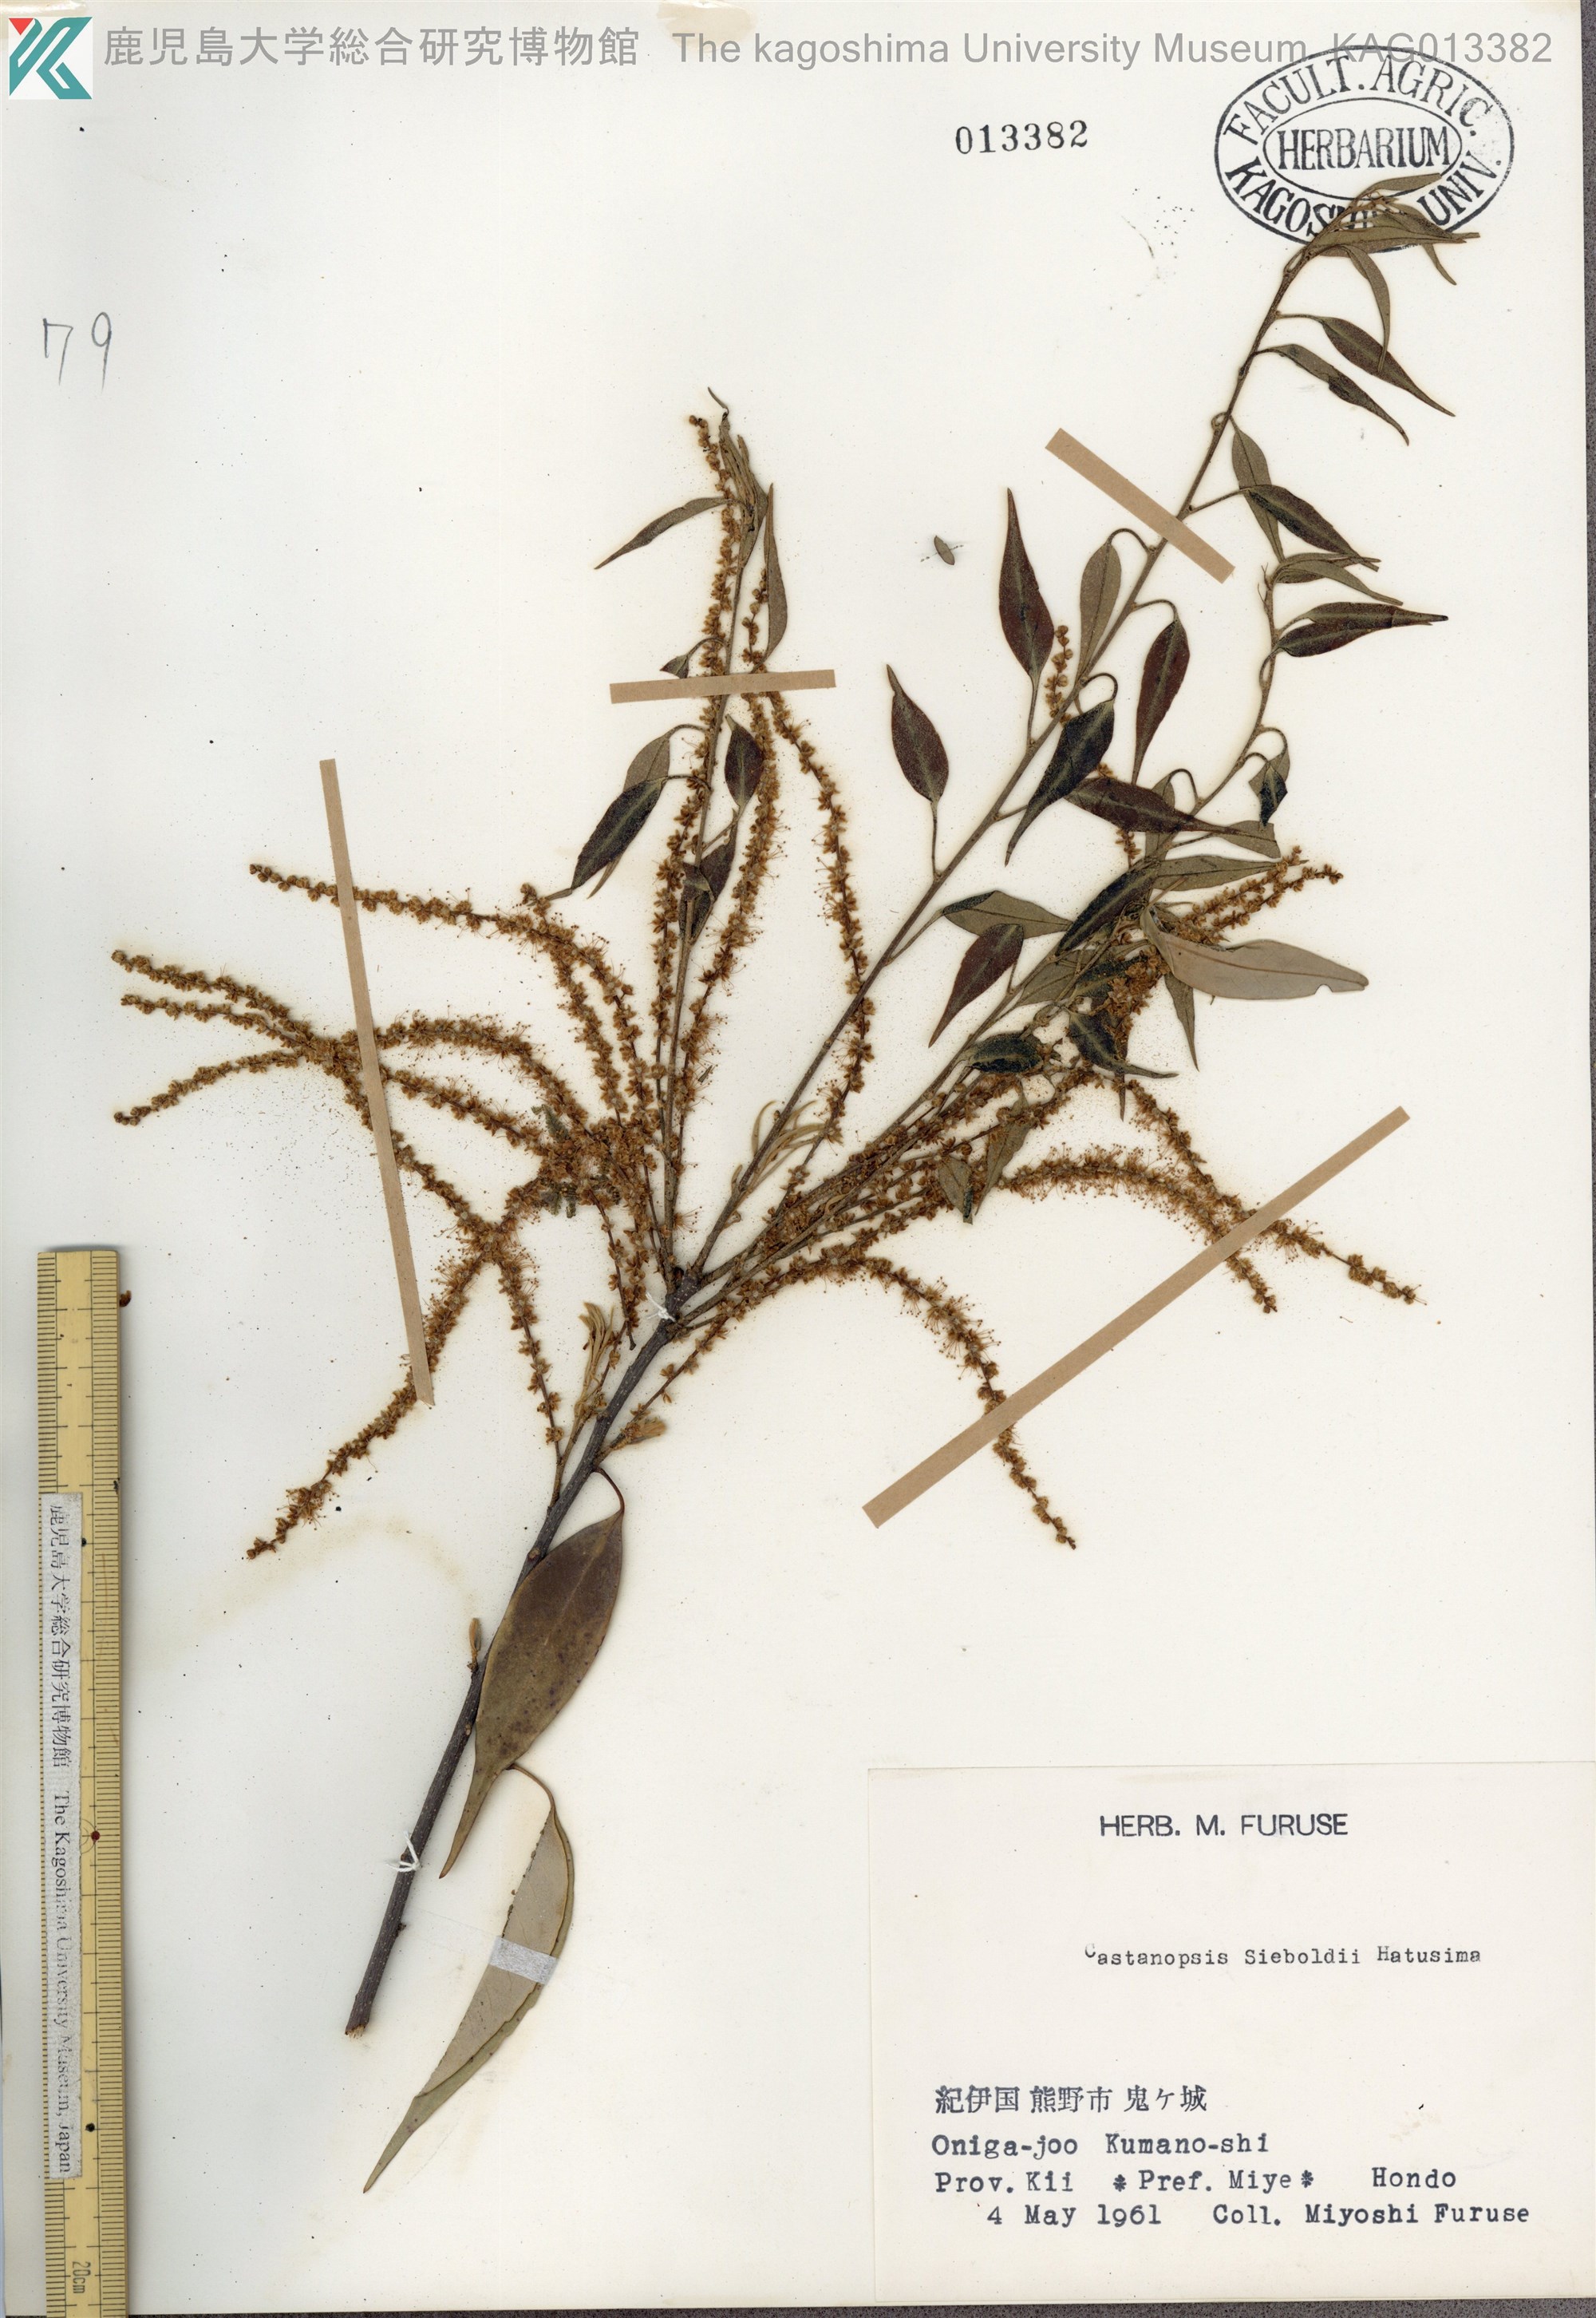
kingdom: Plantae
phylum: Tracheophyta
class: Magnoliopsida
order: Fagales
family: Fagaceae
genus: Castanopsis
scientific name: Castanopsis sieboldii
